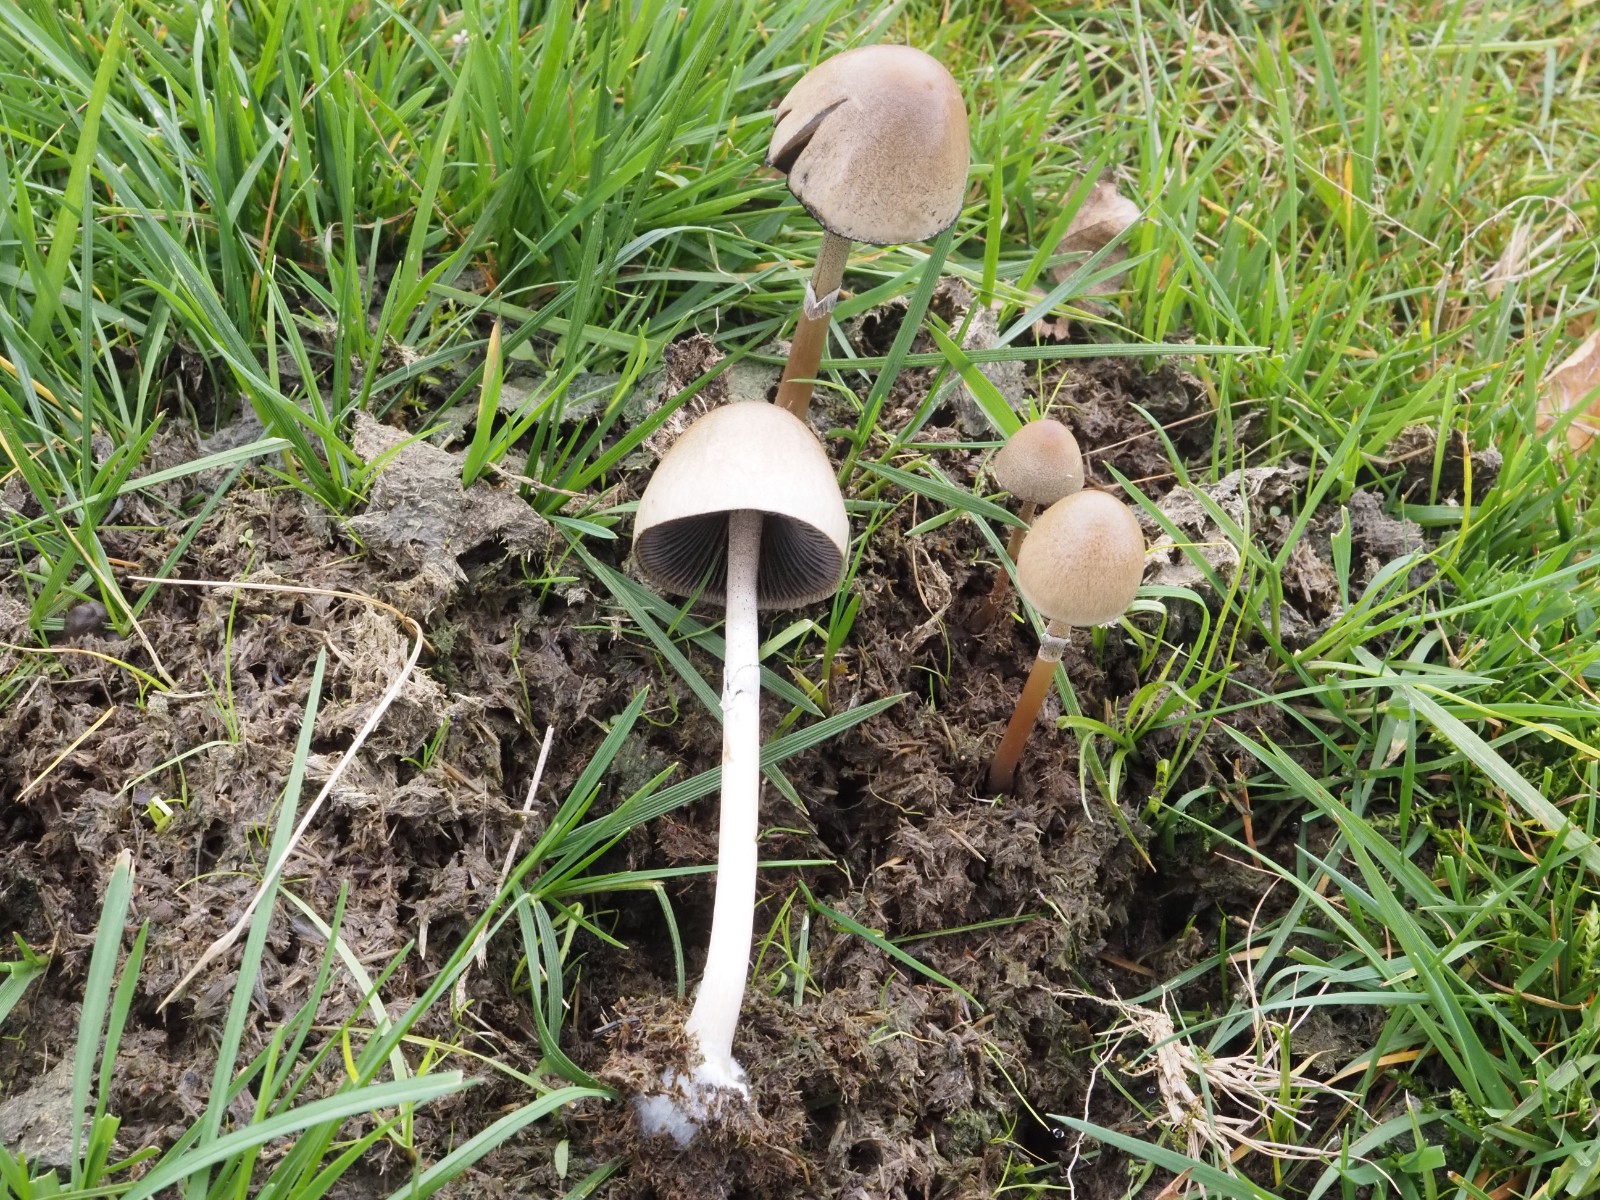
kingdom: Fungi
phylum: Basidiomycota
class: Agaricomycetes
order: Agaricales
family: Bolbitiaceae
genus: Panaeolus
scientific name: Panaeolus semiovatus
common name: ring-glanshat
